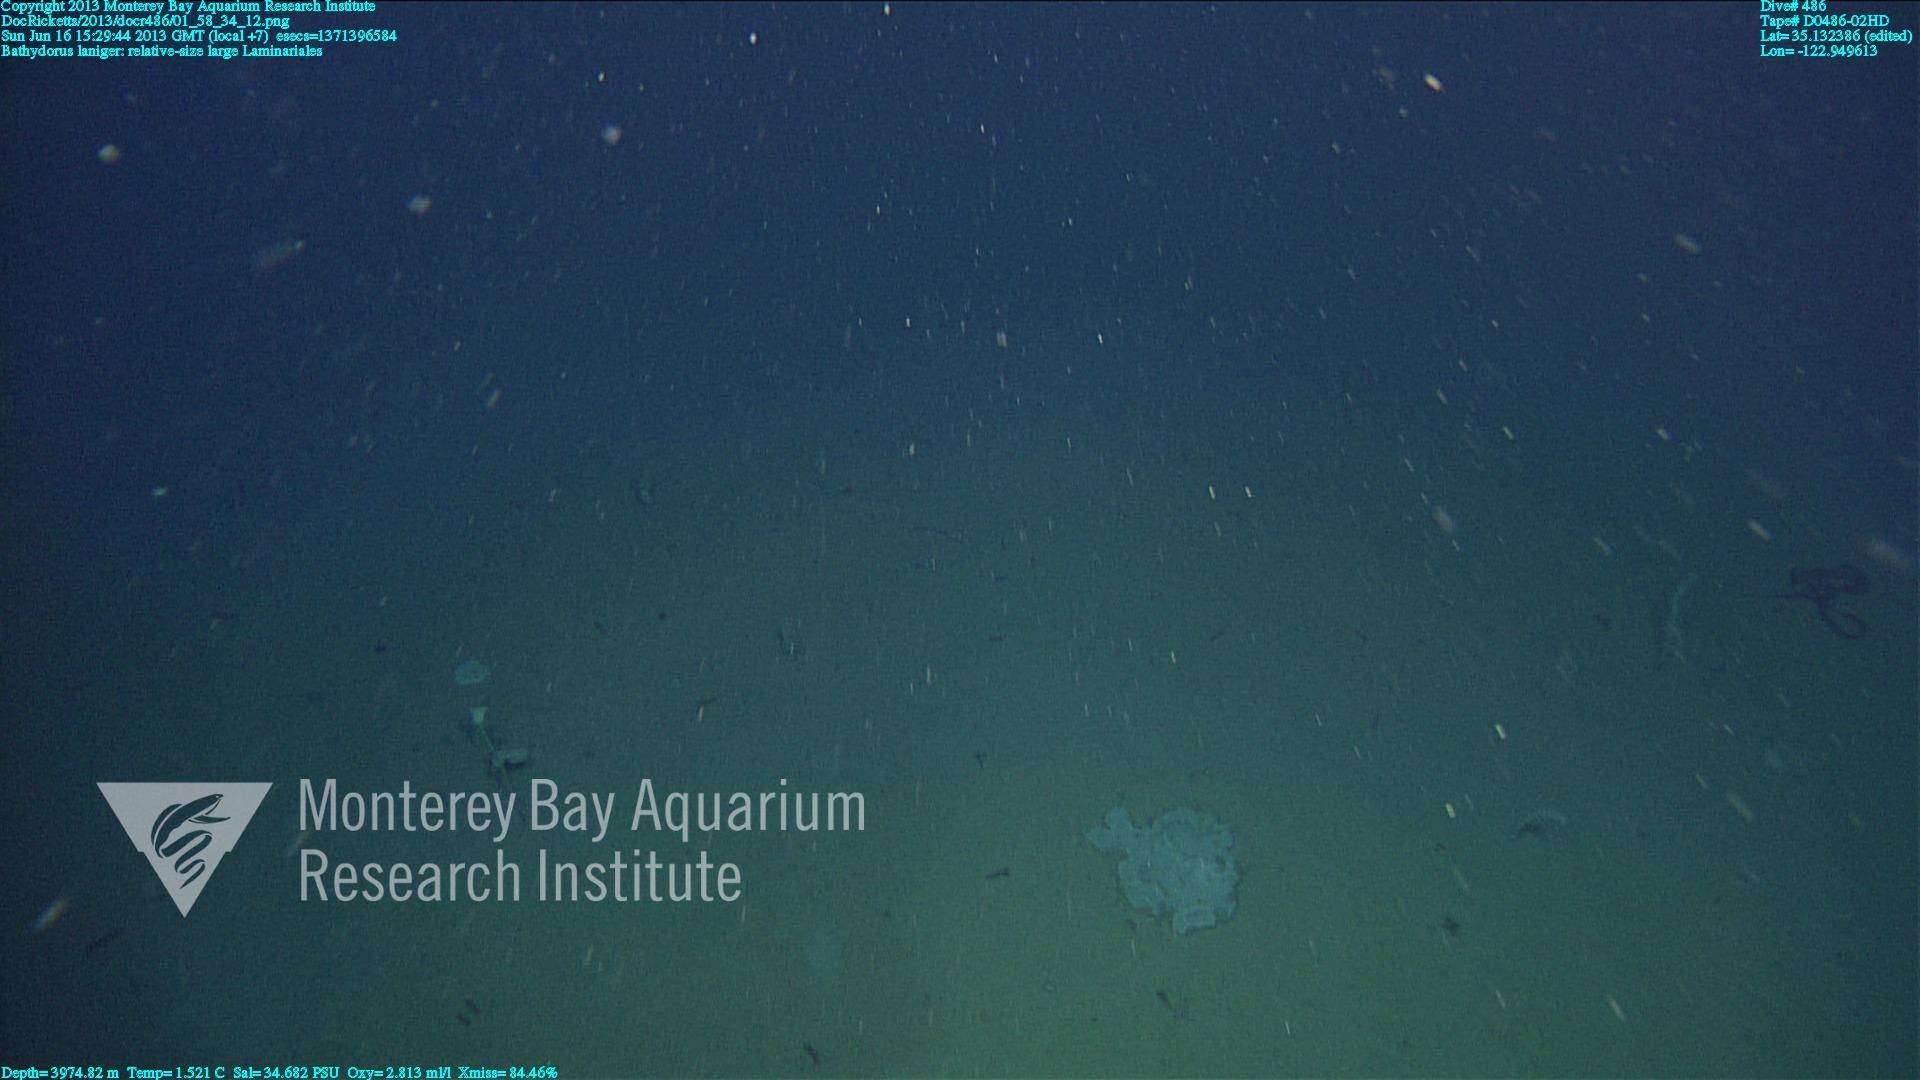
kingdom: Animalia
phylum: Porifera
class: Hexactinellida
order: Lyssacinosida
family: Rossellidae
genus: Bathydorus
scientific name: Bathydorus laniger
